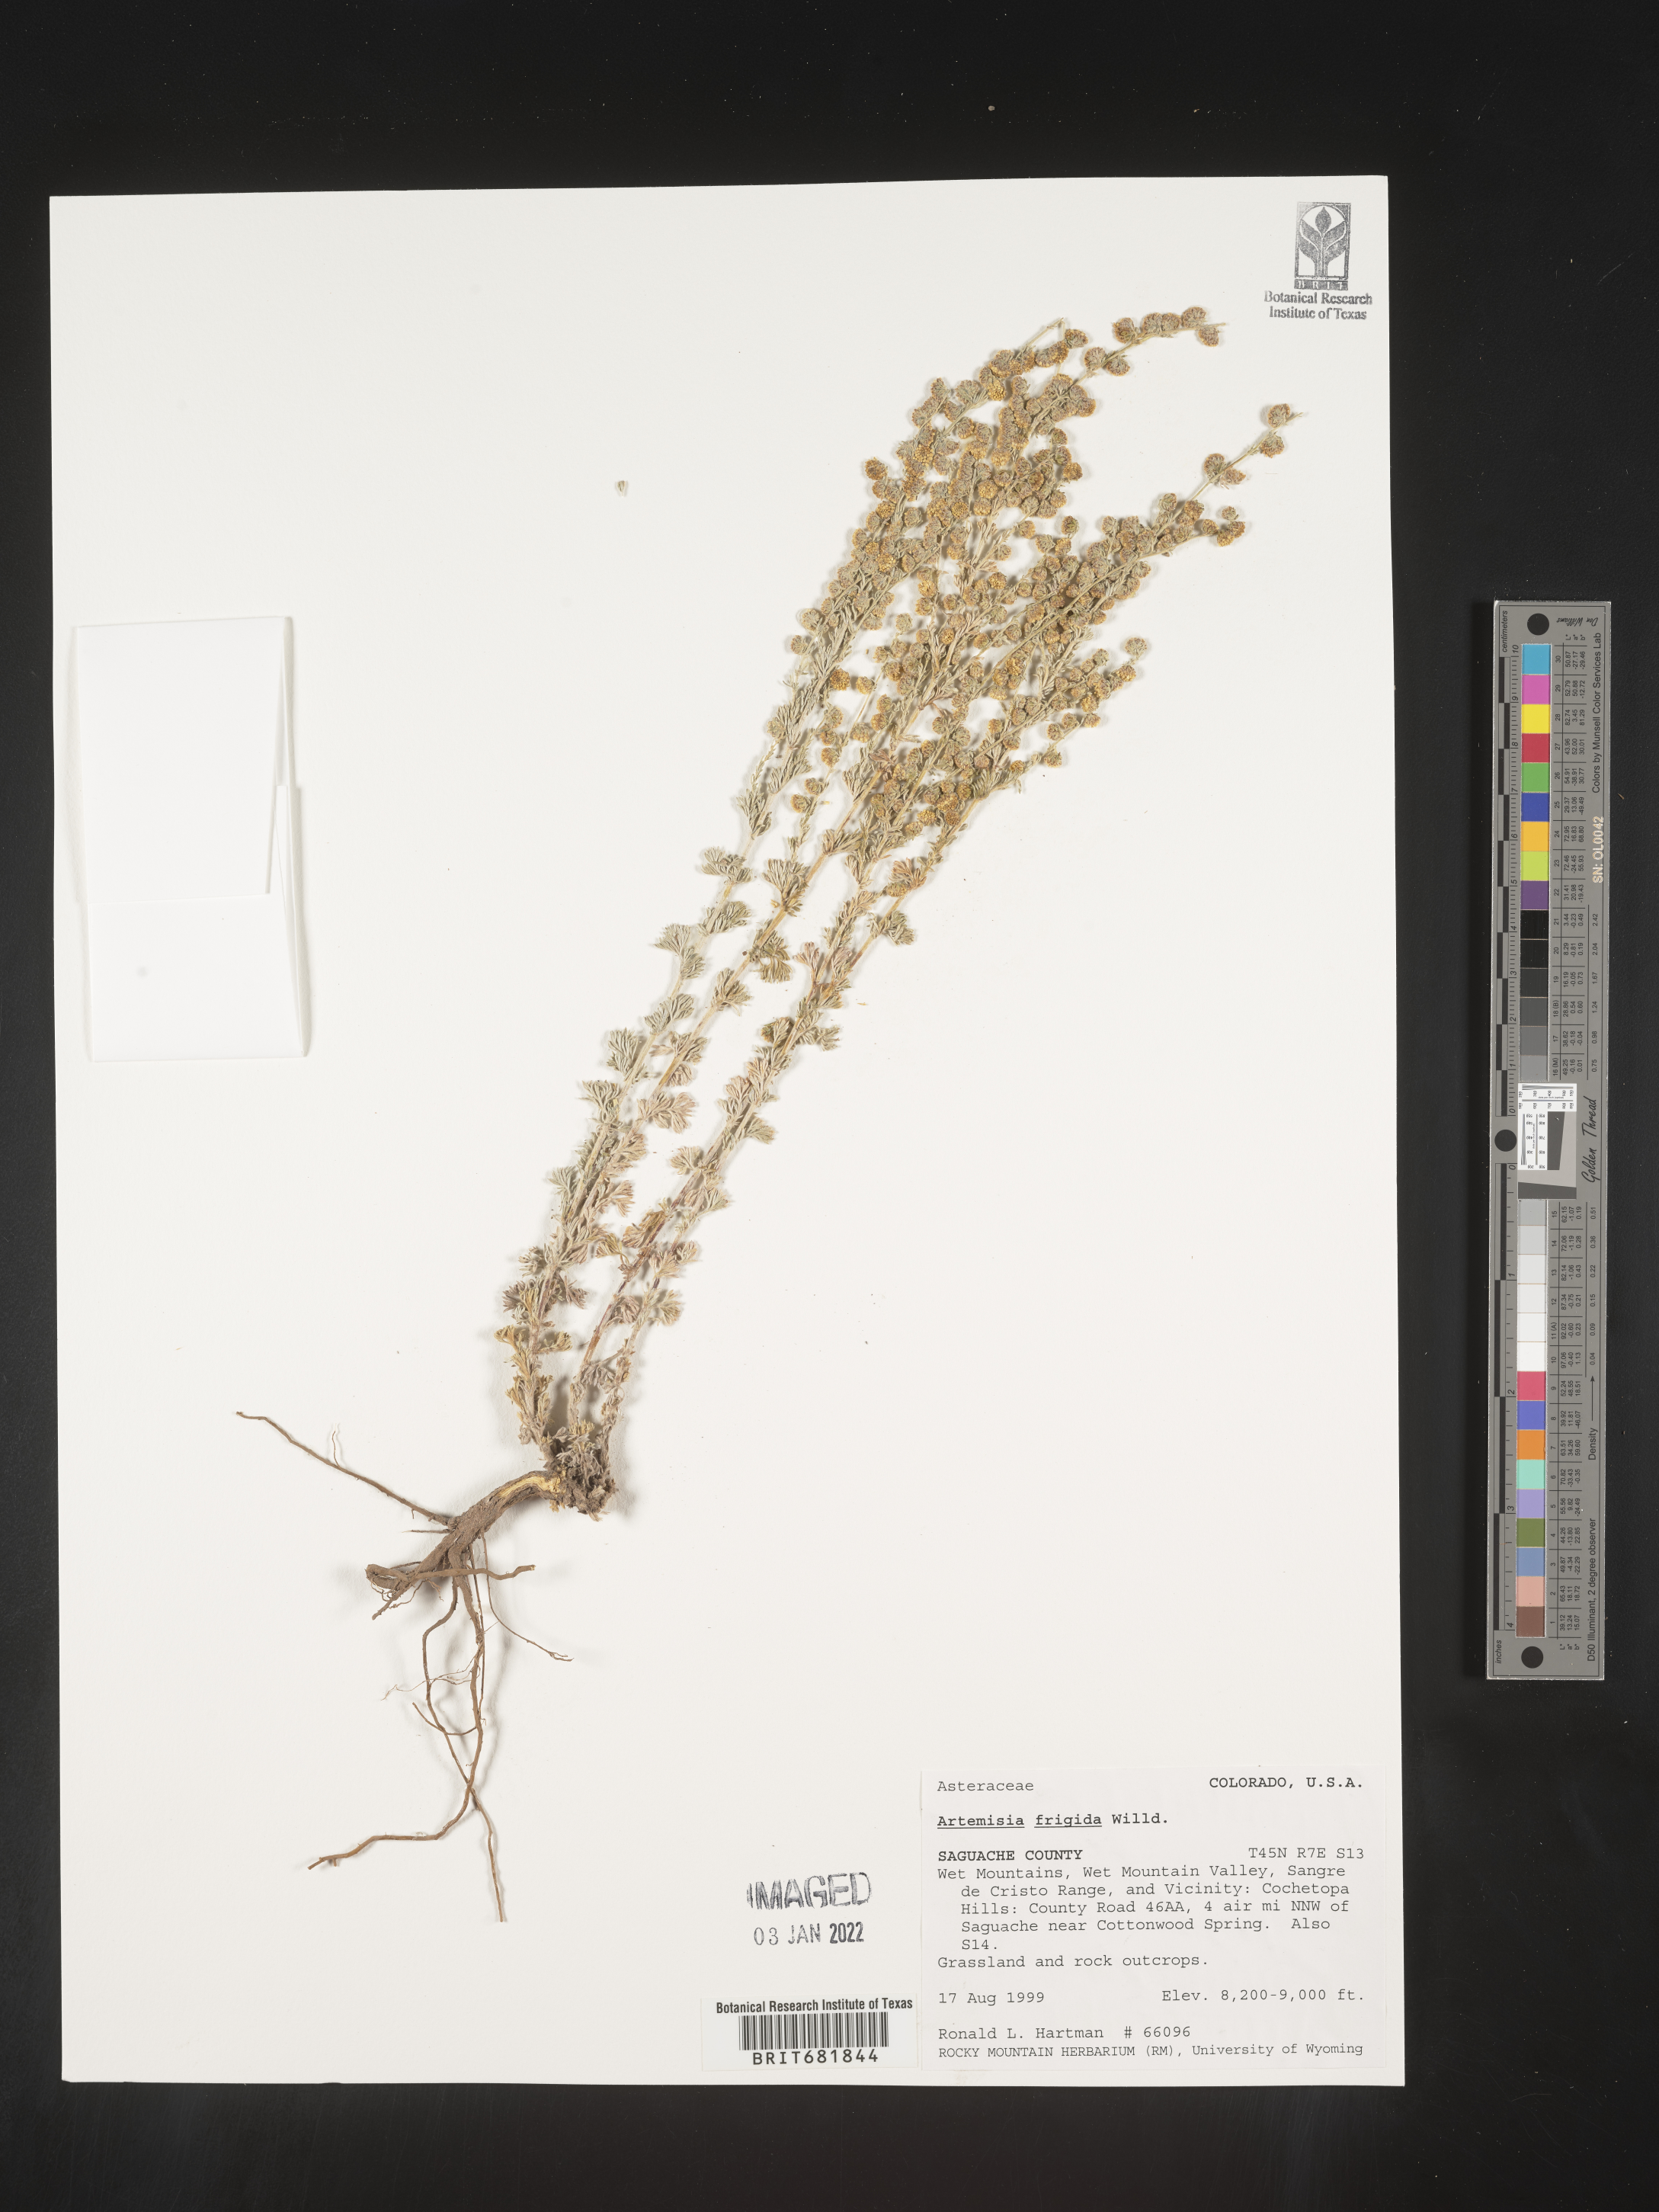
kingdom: Plantae
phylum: Tracheophyta
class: Magnoliopsida
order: Asterales
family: Asteraceae
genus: Artemisia
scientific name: Artemisia frigida
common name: Prairie sagewort
